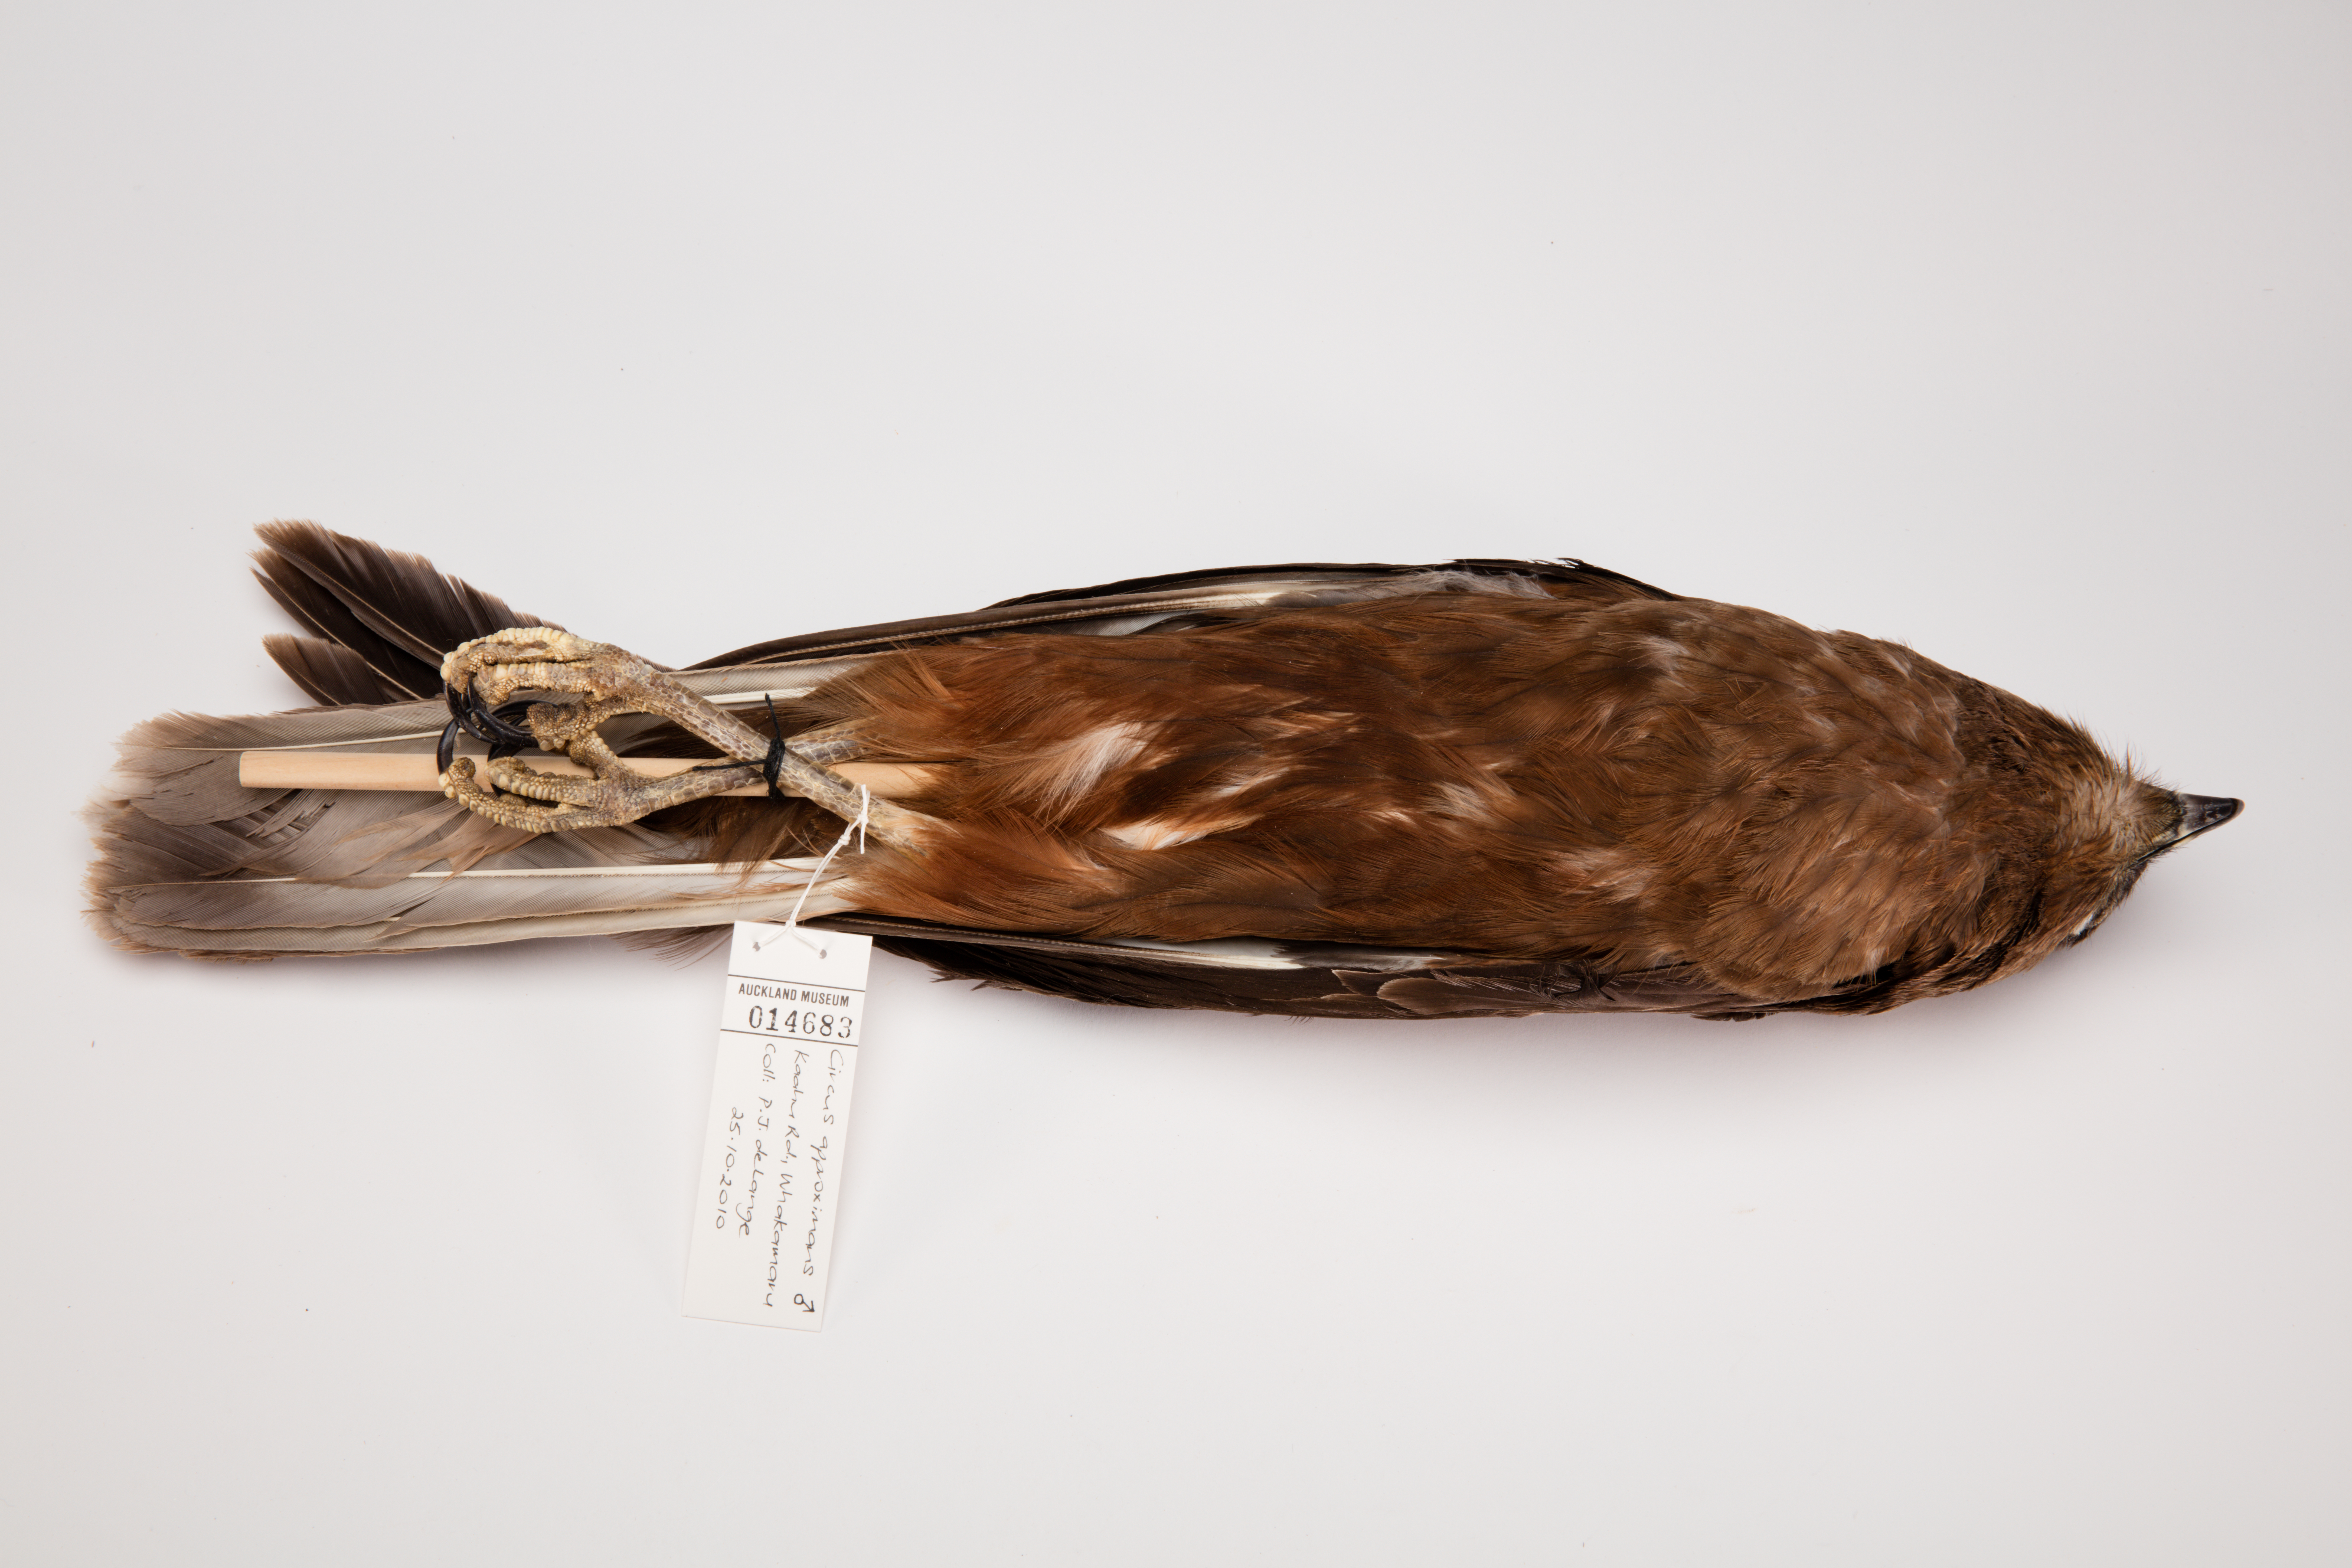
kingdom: Animalia
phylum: Chordata
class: Aves
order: Accipitriformes
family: Accipitridae
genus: Circus
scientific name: Circus approximans
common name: Swamp harrier
